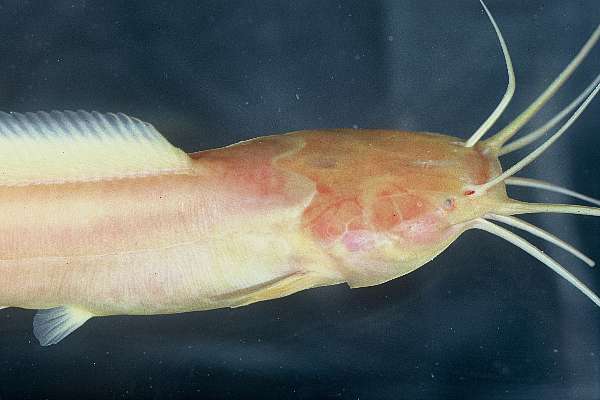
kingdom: Animalia
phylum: Chordata
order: Siluriformes
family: Clariidae
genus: Clarias
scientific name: Clarias cavernicola
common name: Cave catfish
